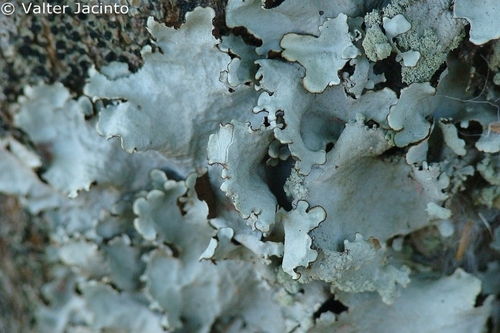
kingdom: Fungi
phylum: Ascomycota
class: Lecanoromycetes
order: Lecanorales
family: Parmeliaceae
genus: Parmotrema
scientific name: Parmotrema perlatum
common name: Black stone flower
